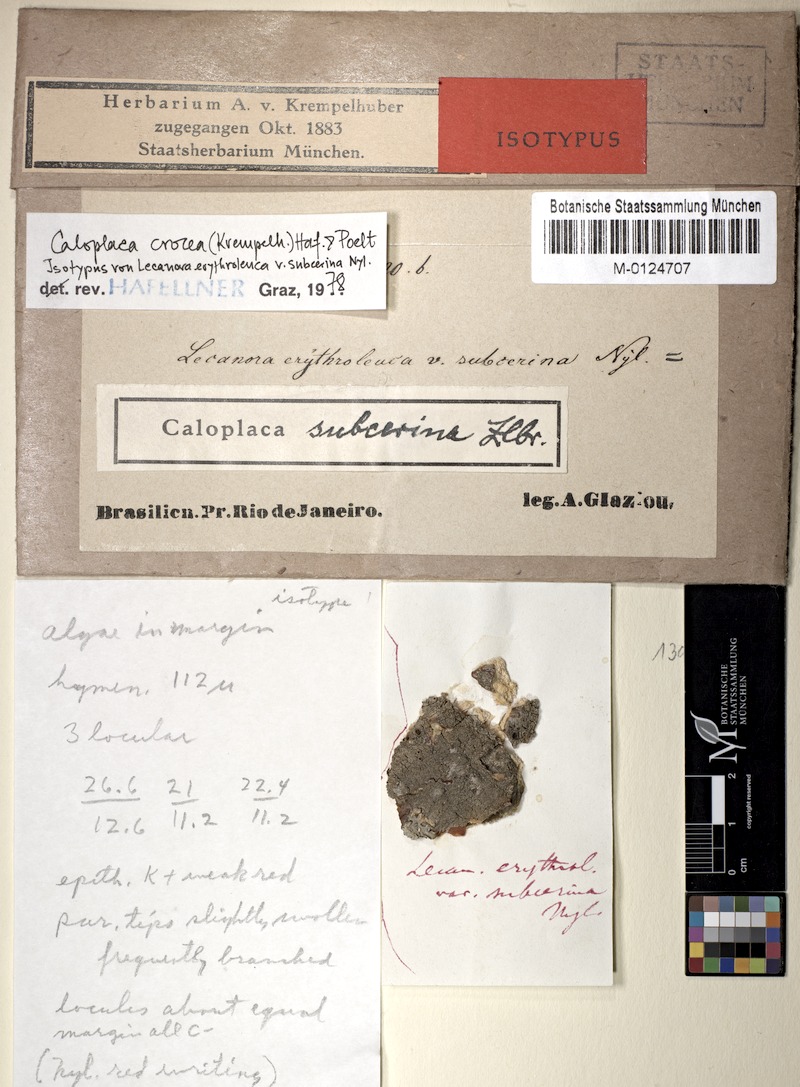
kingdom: Fungi
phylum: Ascomycota
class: Lecanoromycetes
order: Teloschistales
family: Teloschistaceae
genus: Caloplaca
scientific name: Caloplaca crocea
